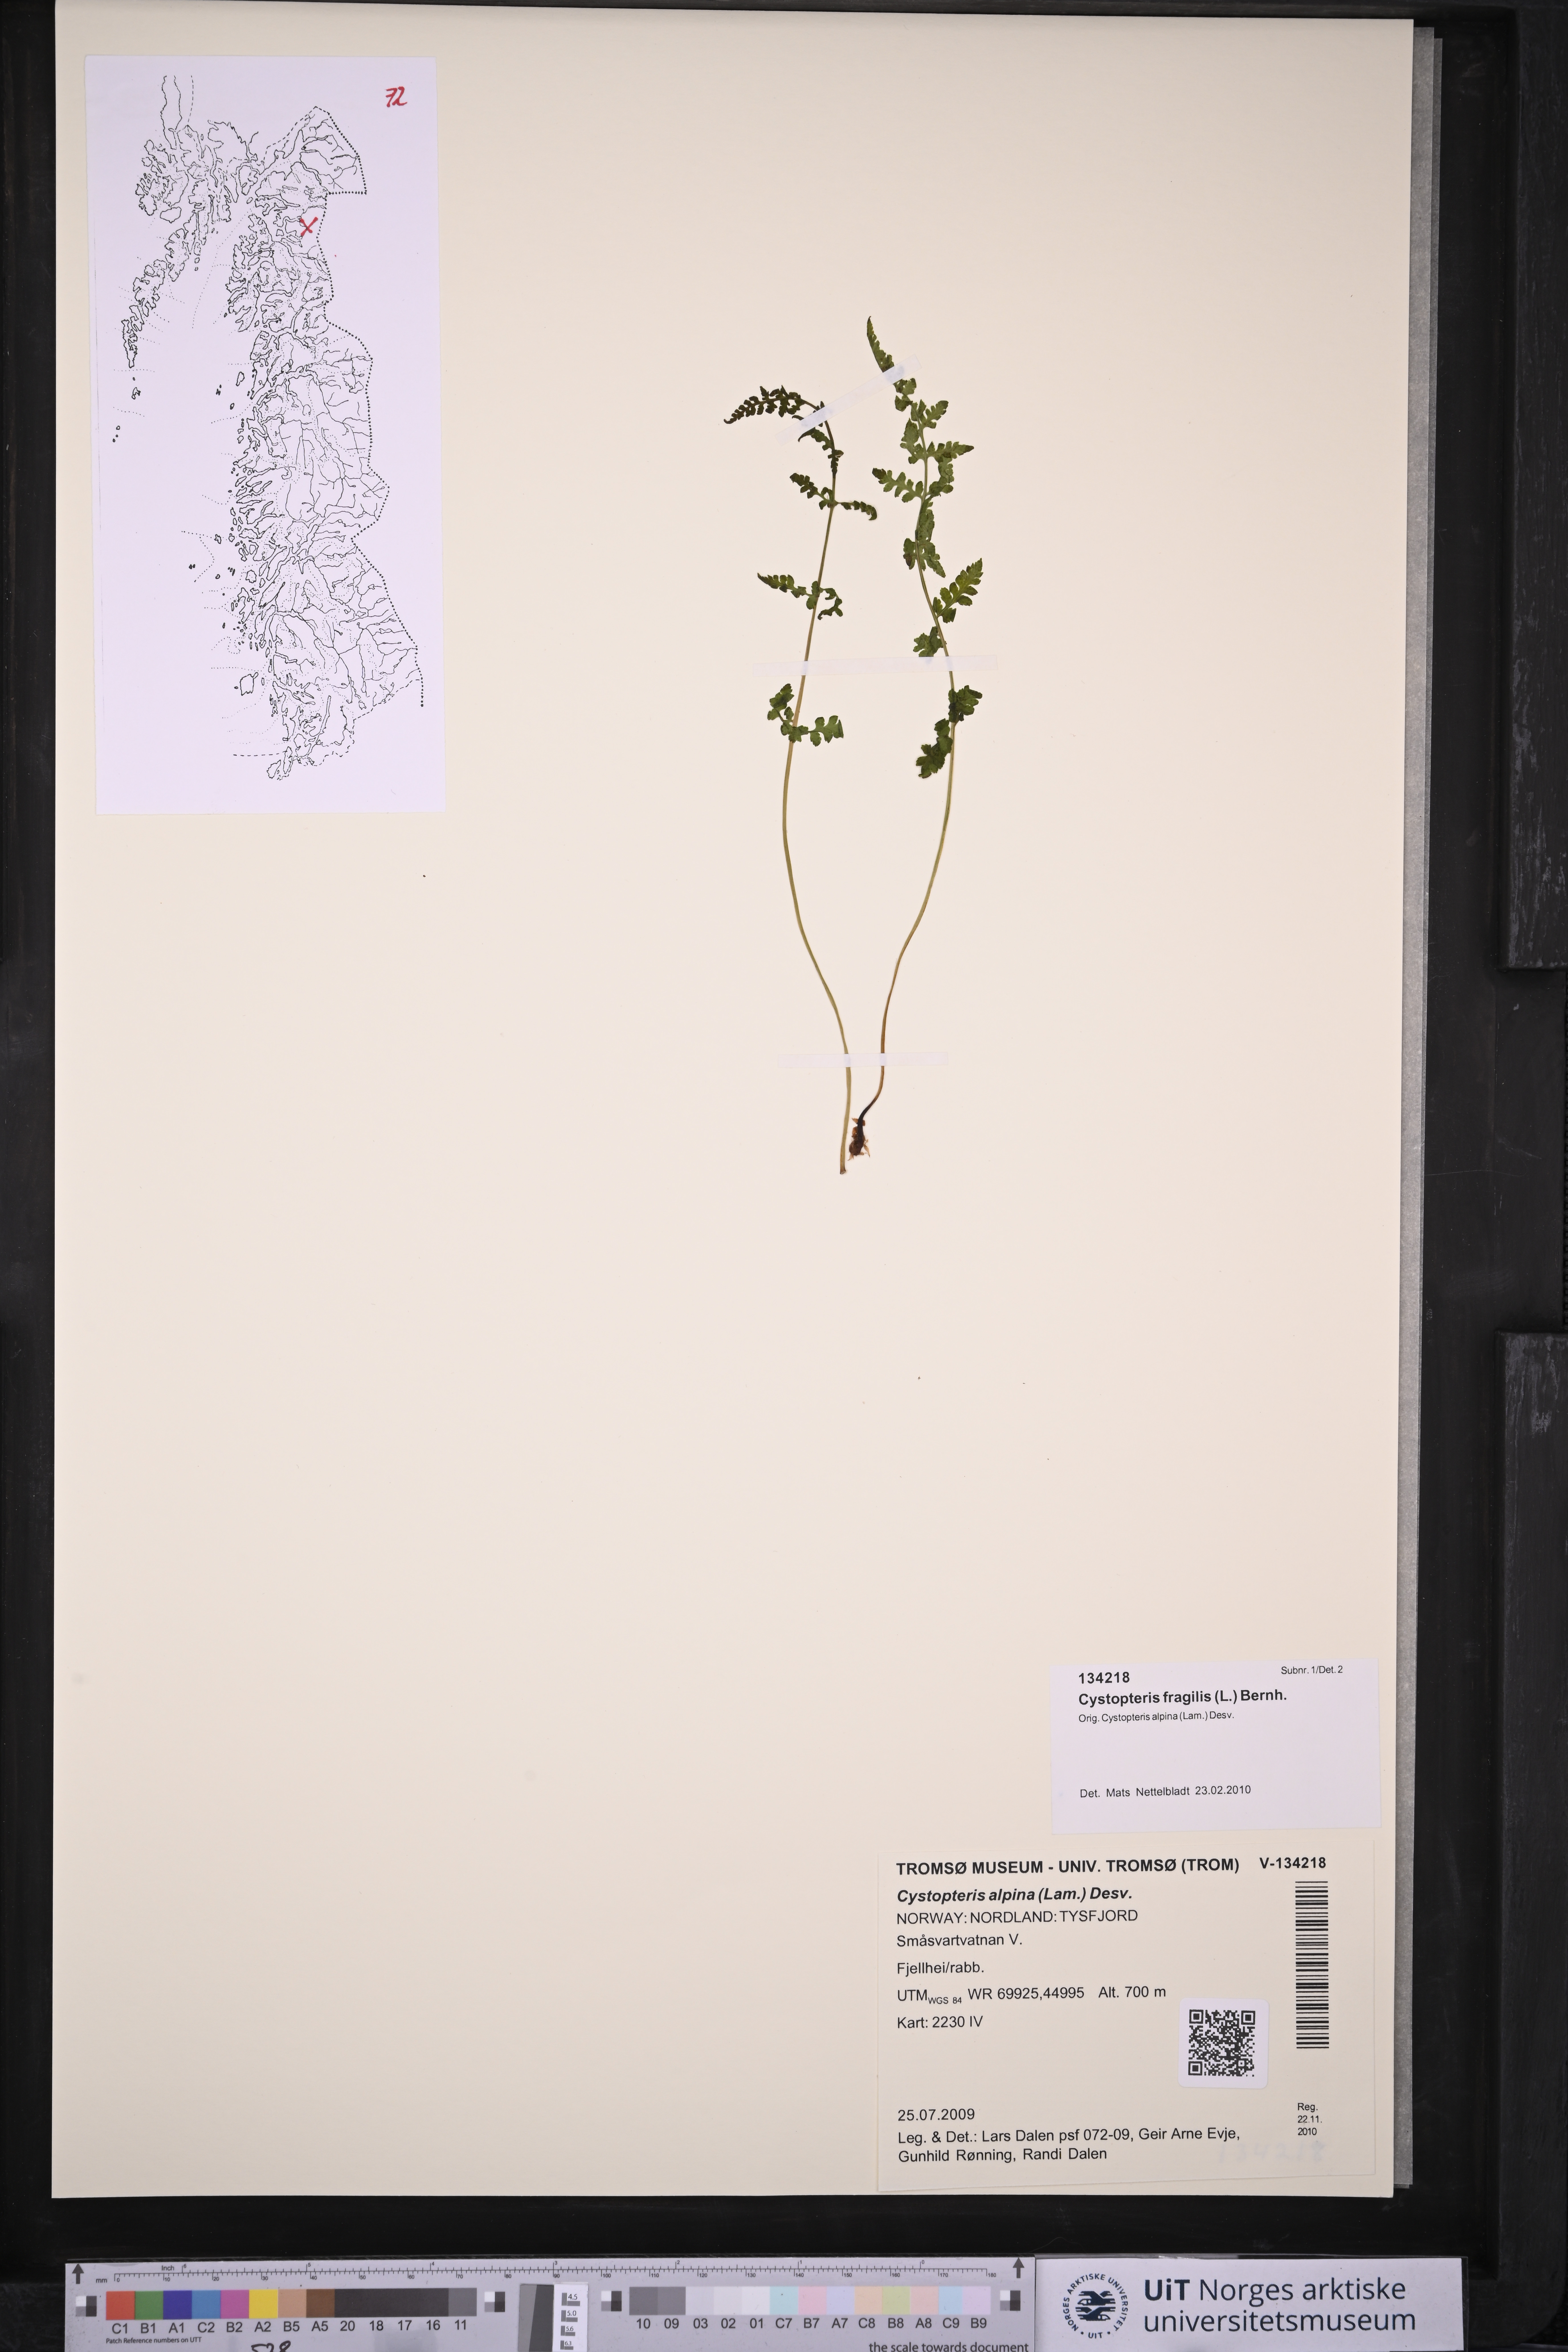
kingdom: Plantae
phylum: Tracheophyta
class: Polypodiopsida
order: Polypodiales
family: Cystopteridaceae
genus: Cystopteris
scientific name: Cystopteris fragilis
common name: Brittle bladder fern
